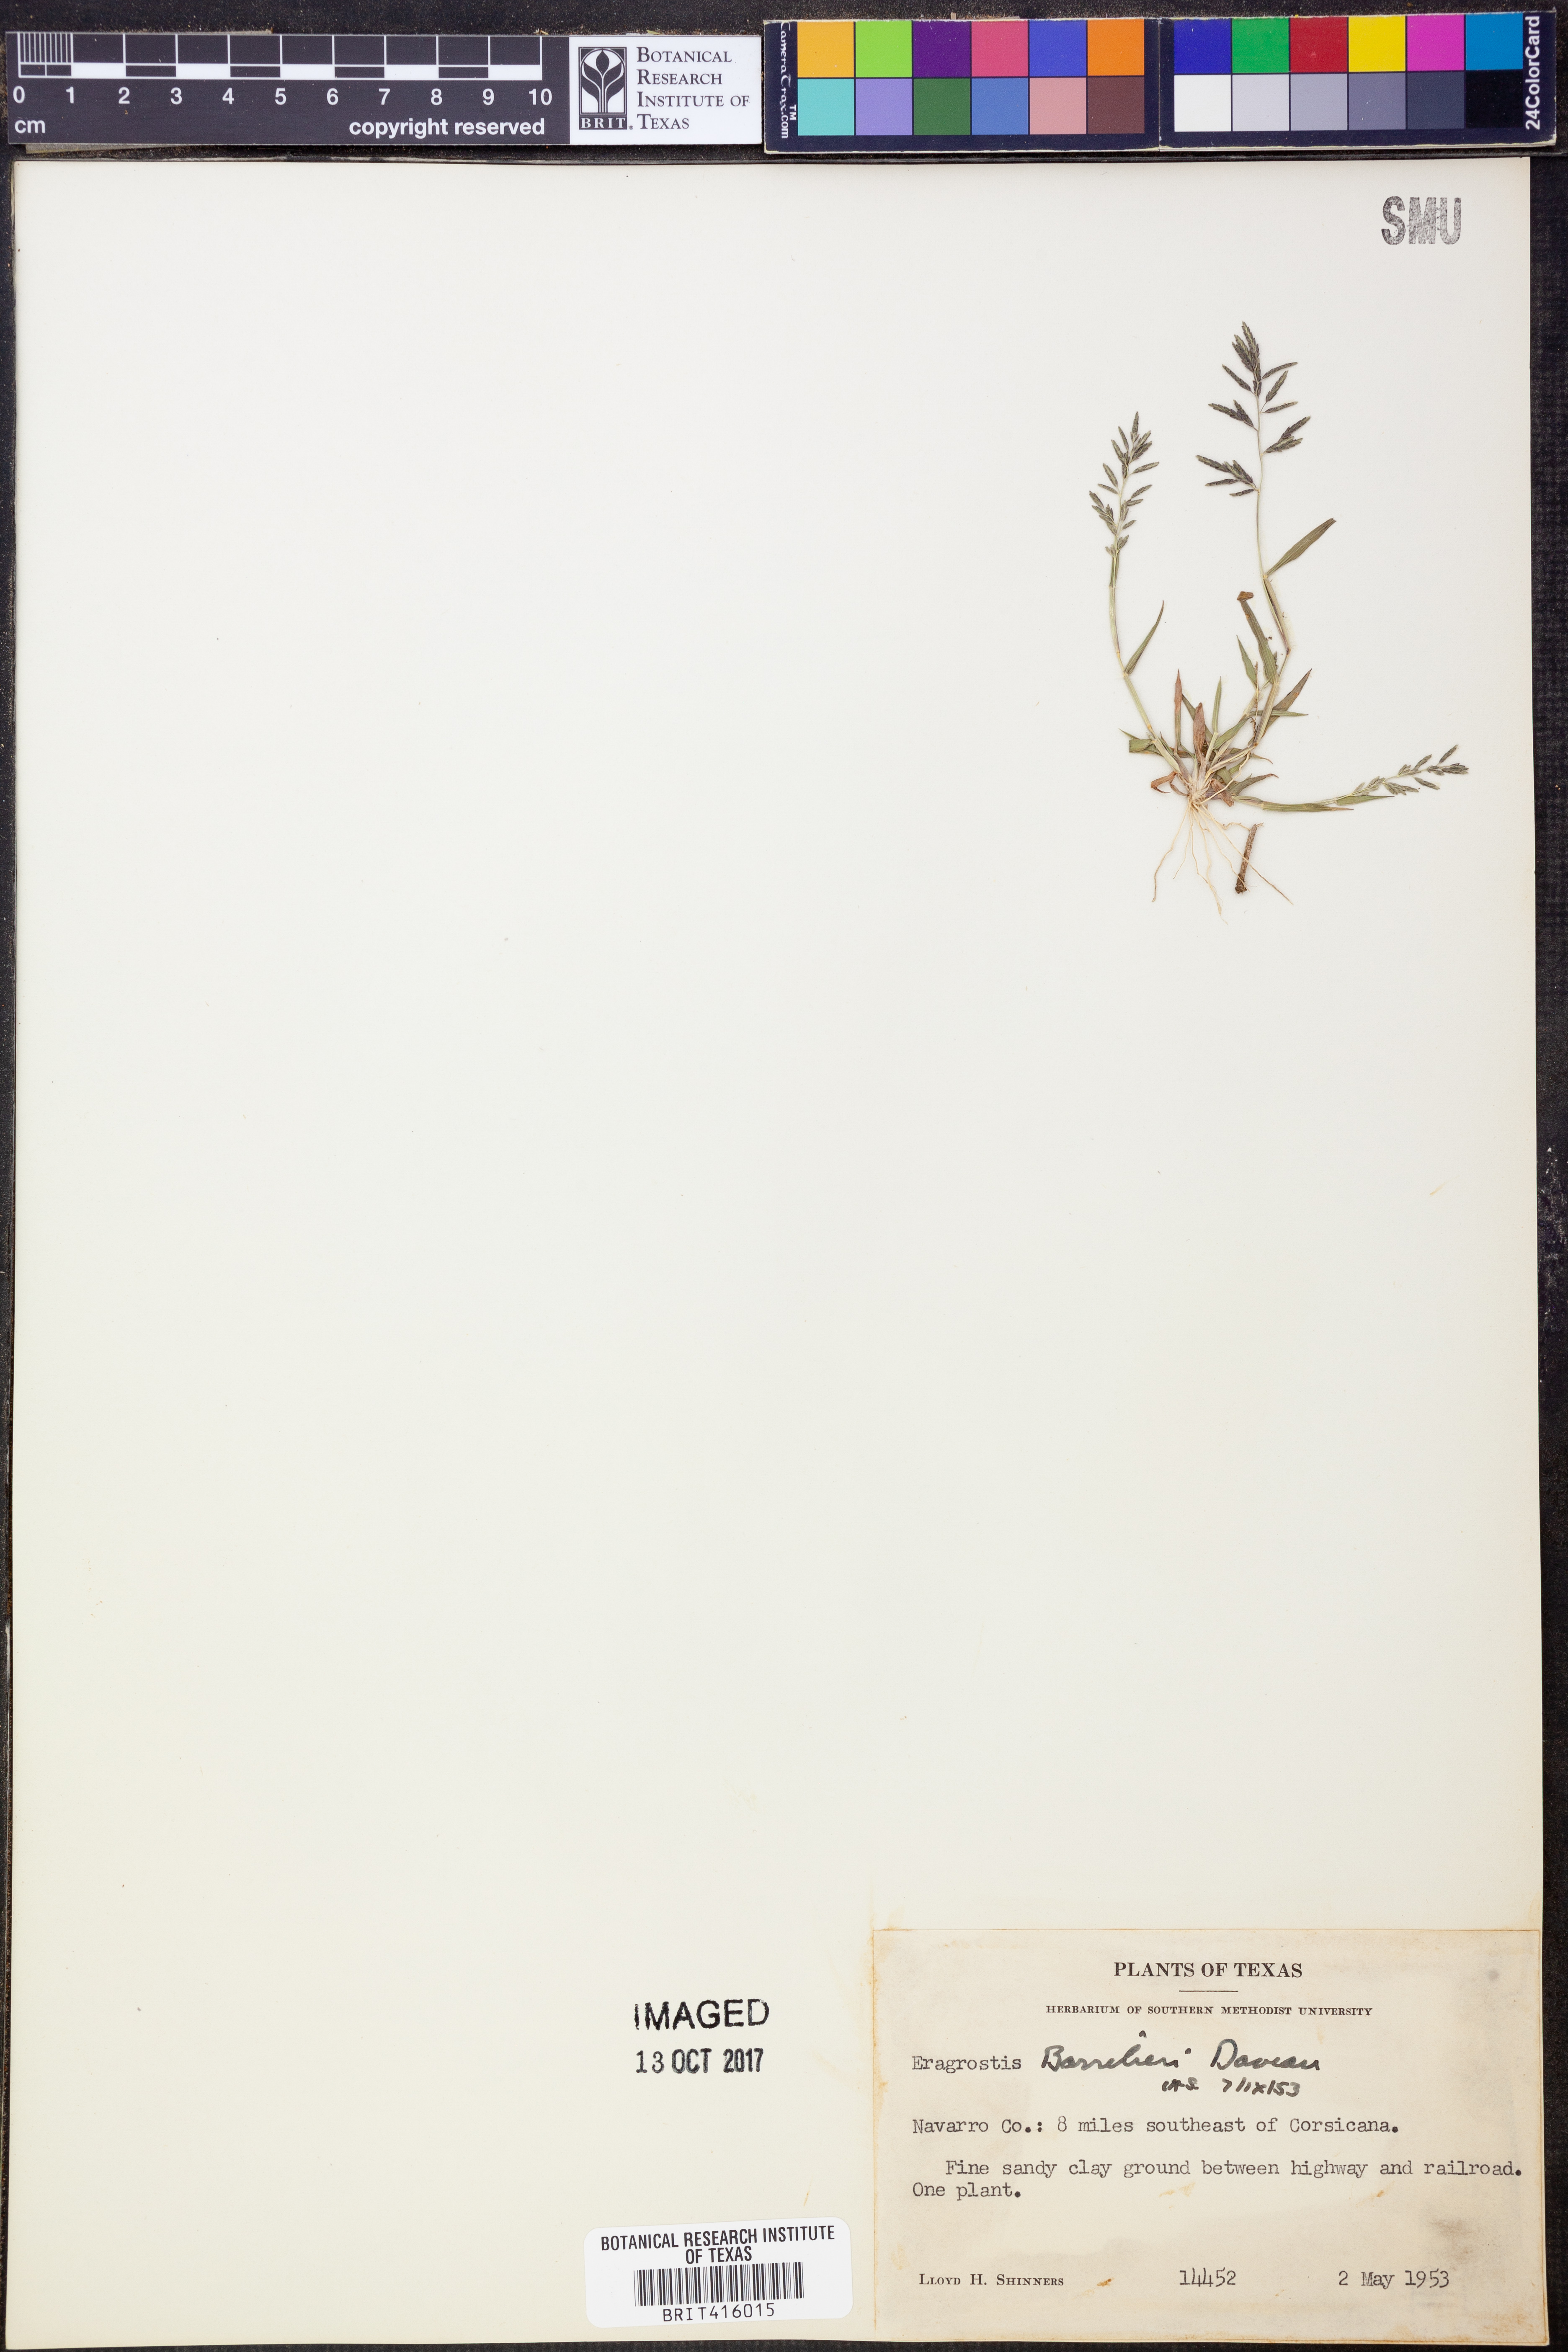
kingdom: Plantae
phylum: Tracheophyta
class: Liliopsida
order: Poales
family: Poaceae
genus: Eragrostis
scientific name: Eragrostis barrelieri
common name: Mediterranean lovegrass
